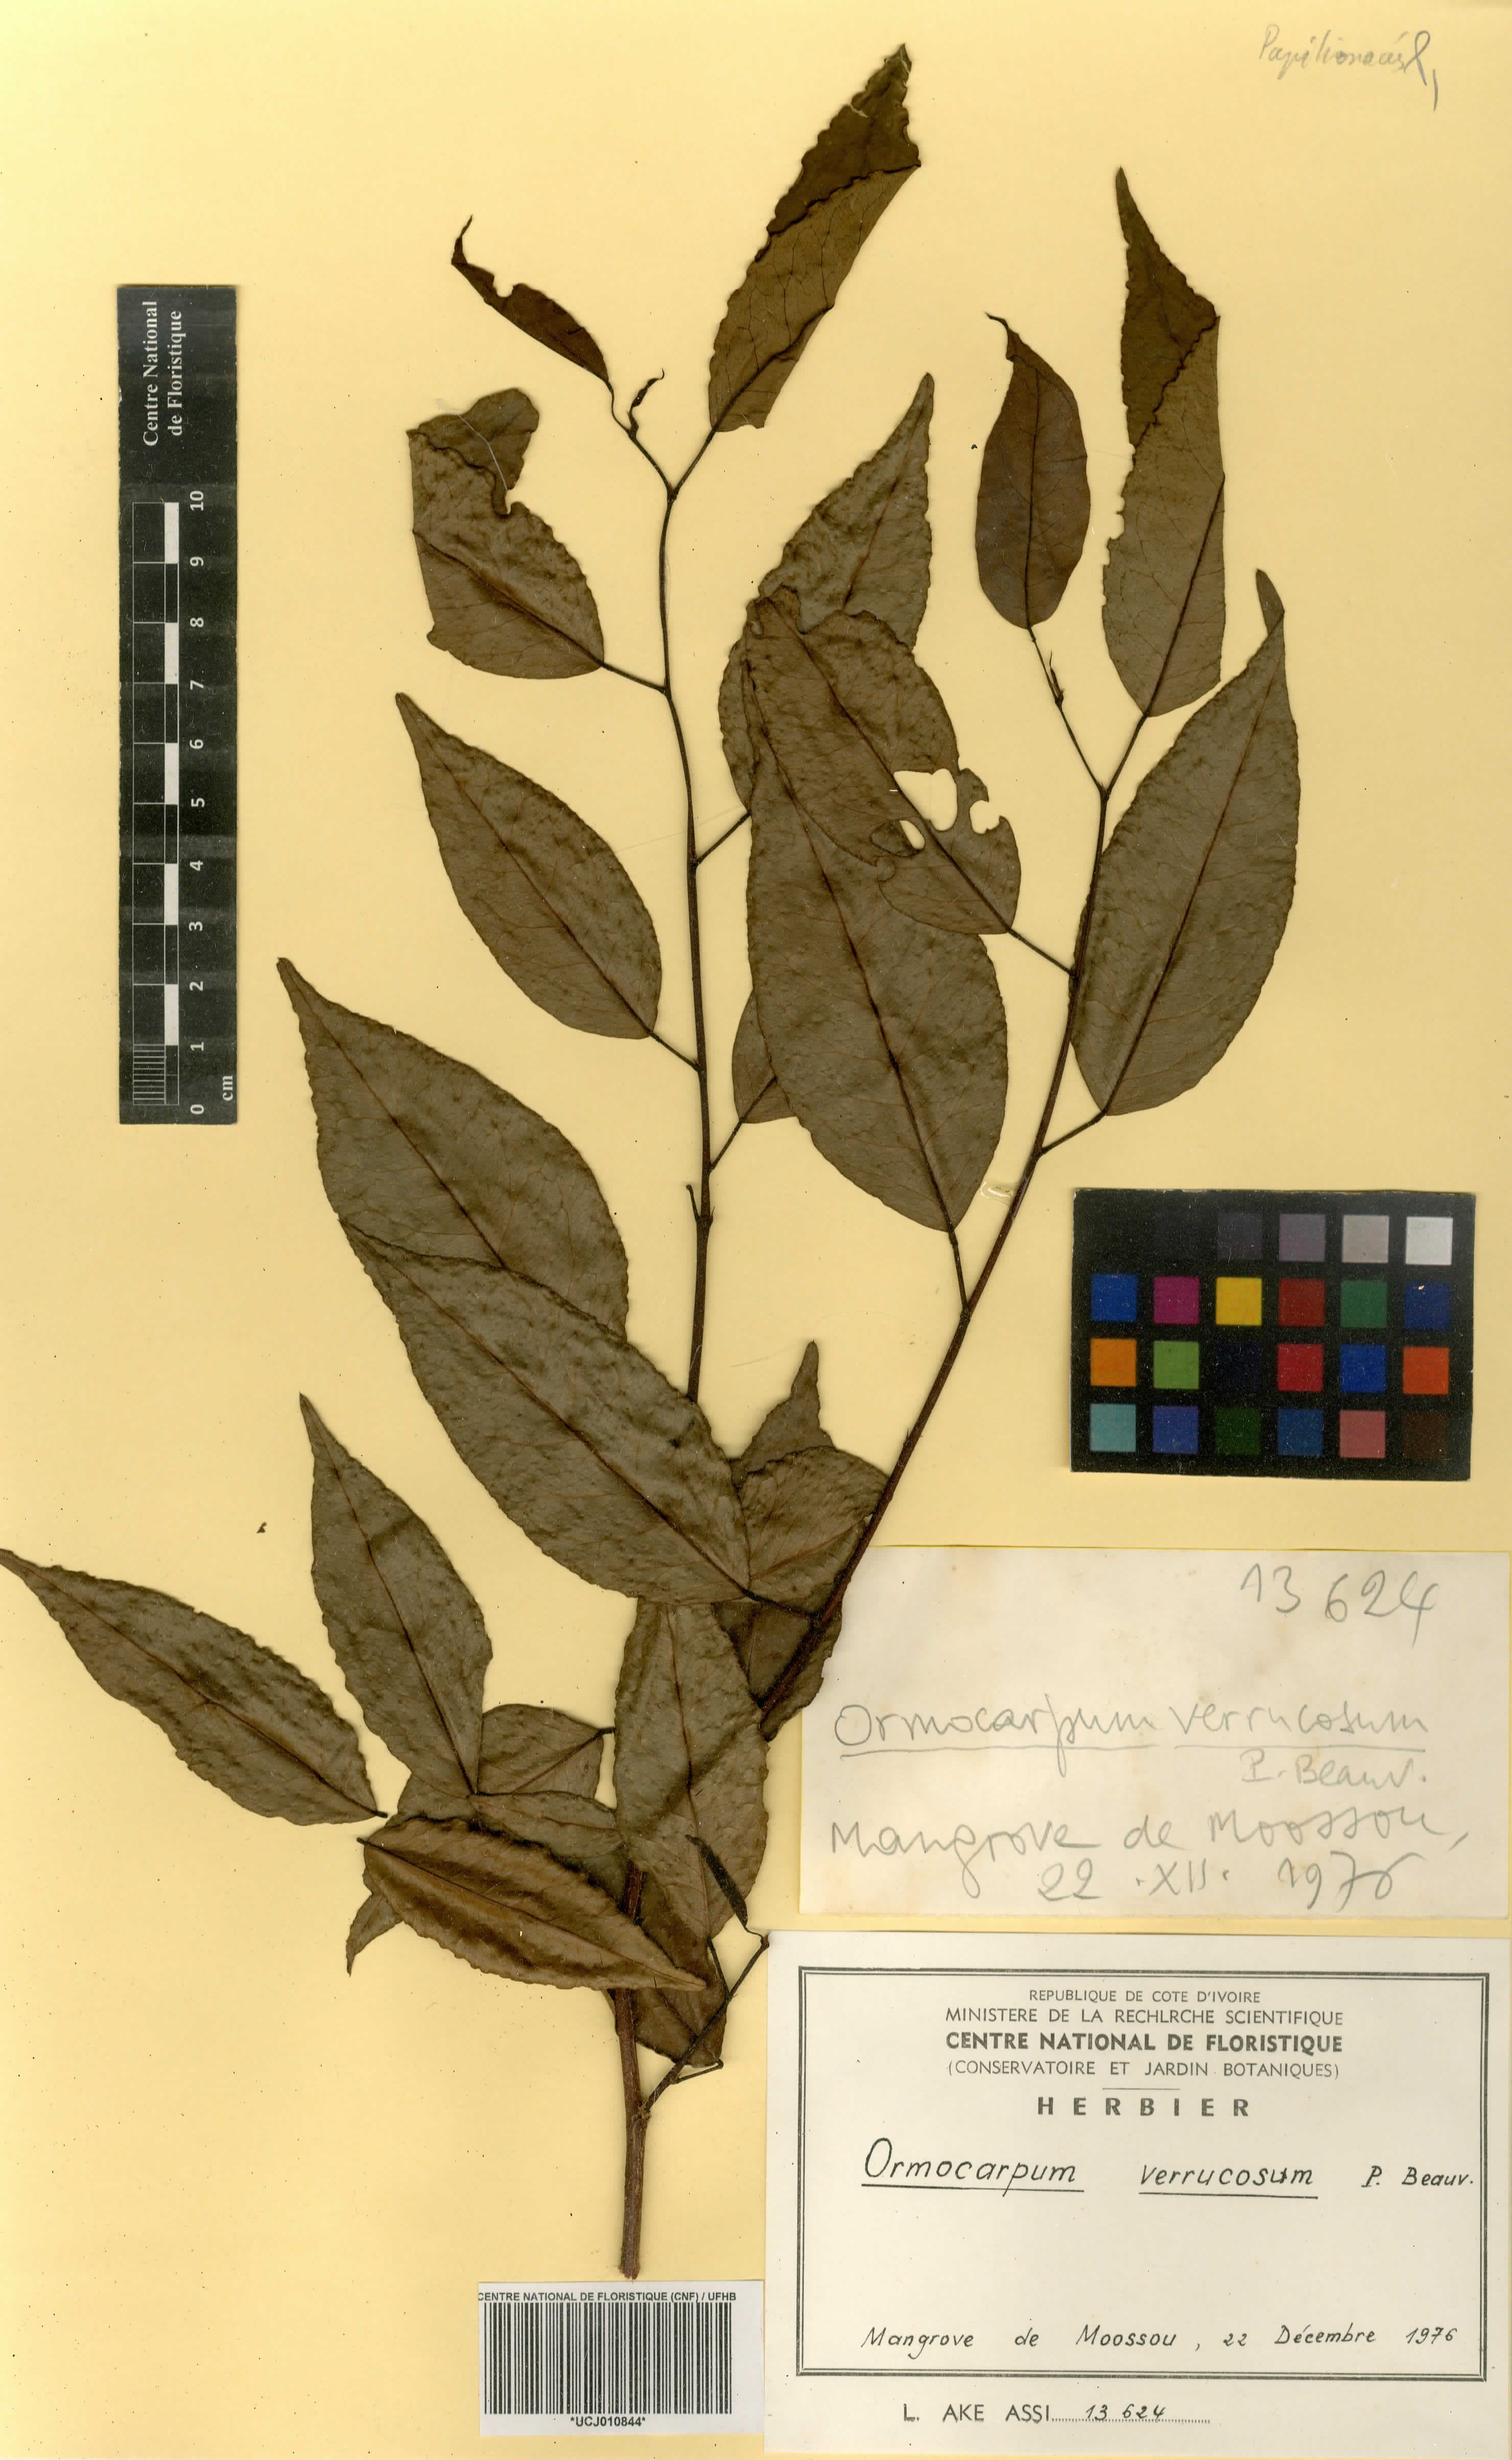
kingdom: Plantae
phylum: Tracheophyta
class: Magnoliopsida
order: Fabales
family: Fabaceae
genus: Ormocarpum
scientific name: Ormocarpum verrucosum
